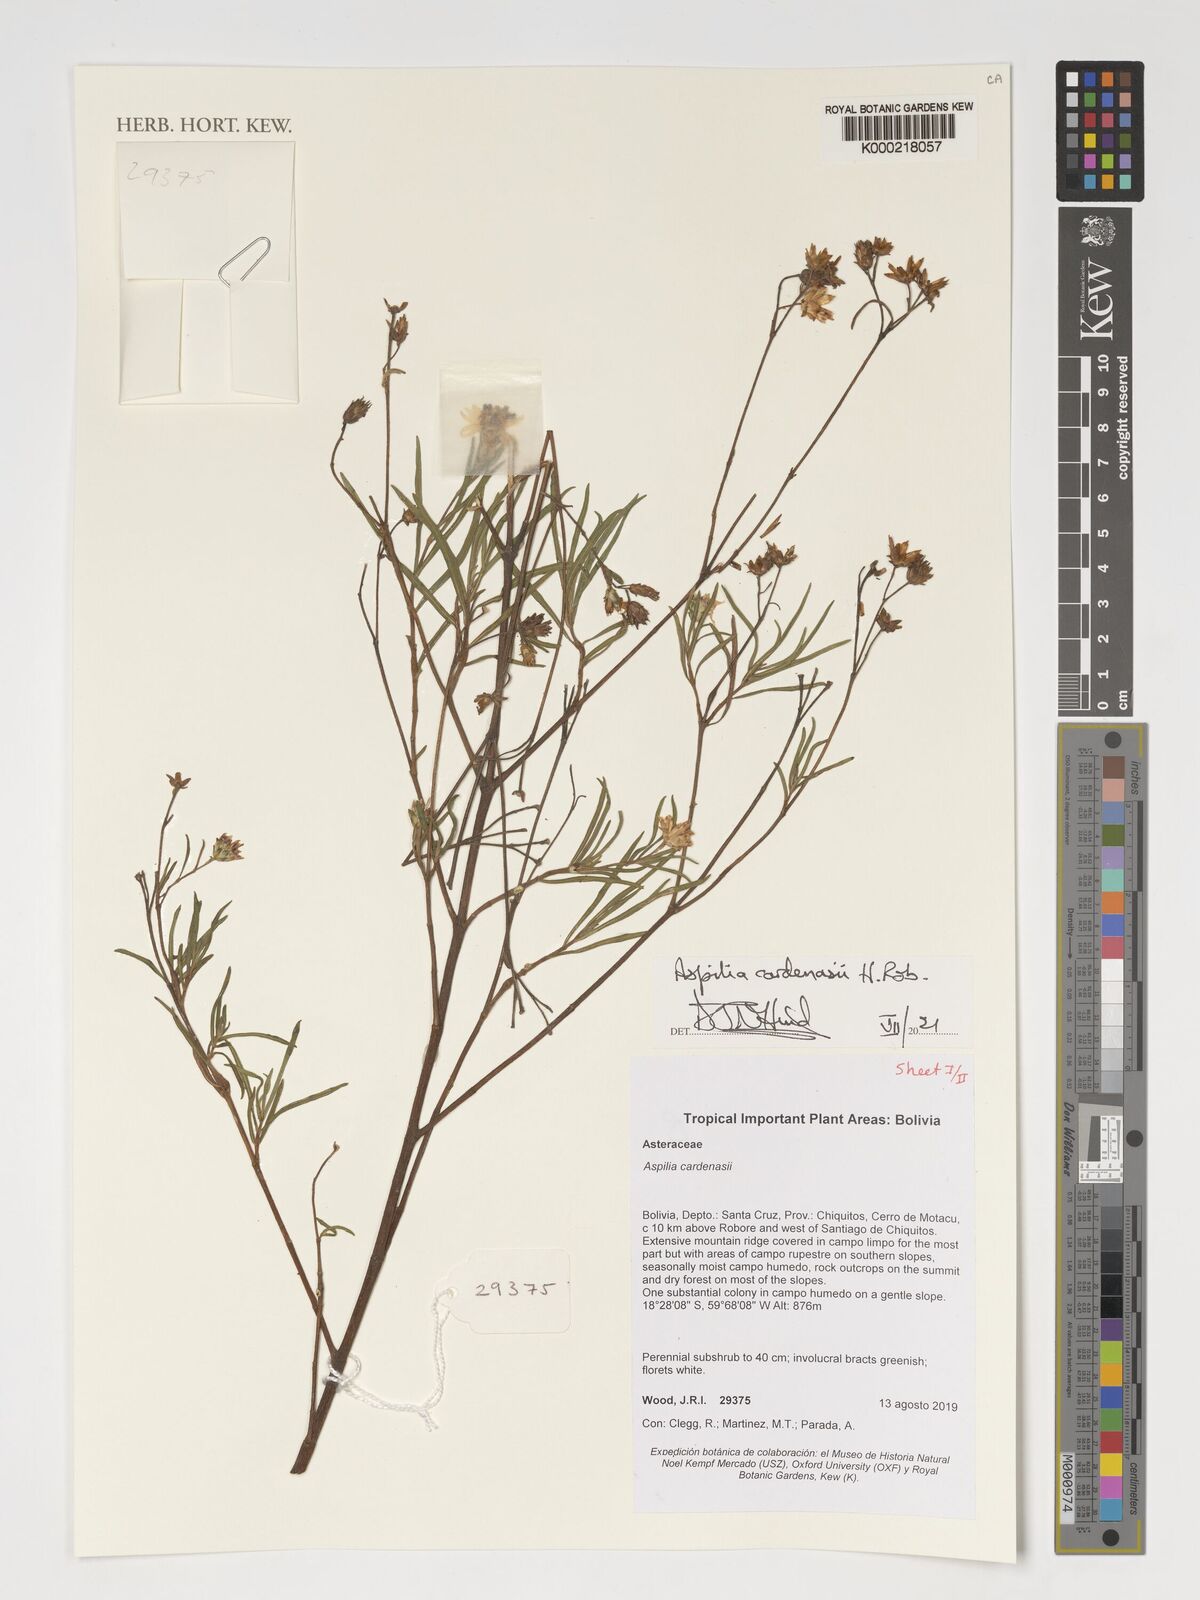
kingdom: Plantae
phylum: Tracheophyta
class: Magnoliopsida
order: Asterales
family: Asteraceae
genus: Wedelia
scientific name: Wedelia cardenasii
